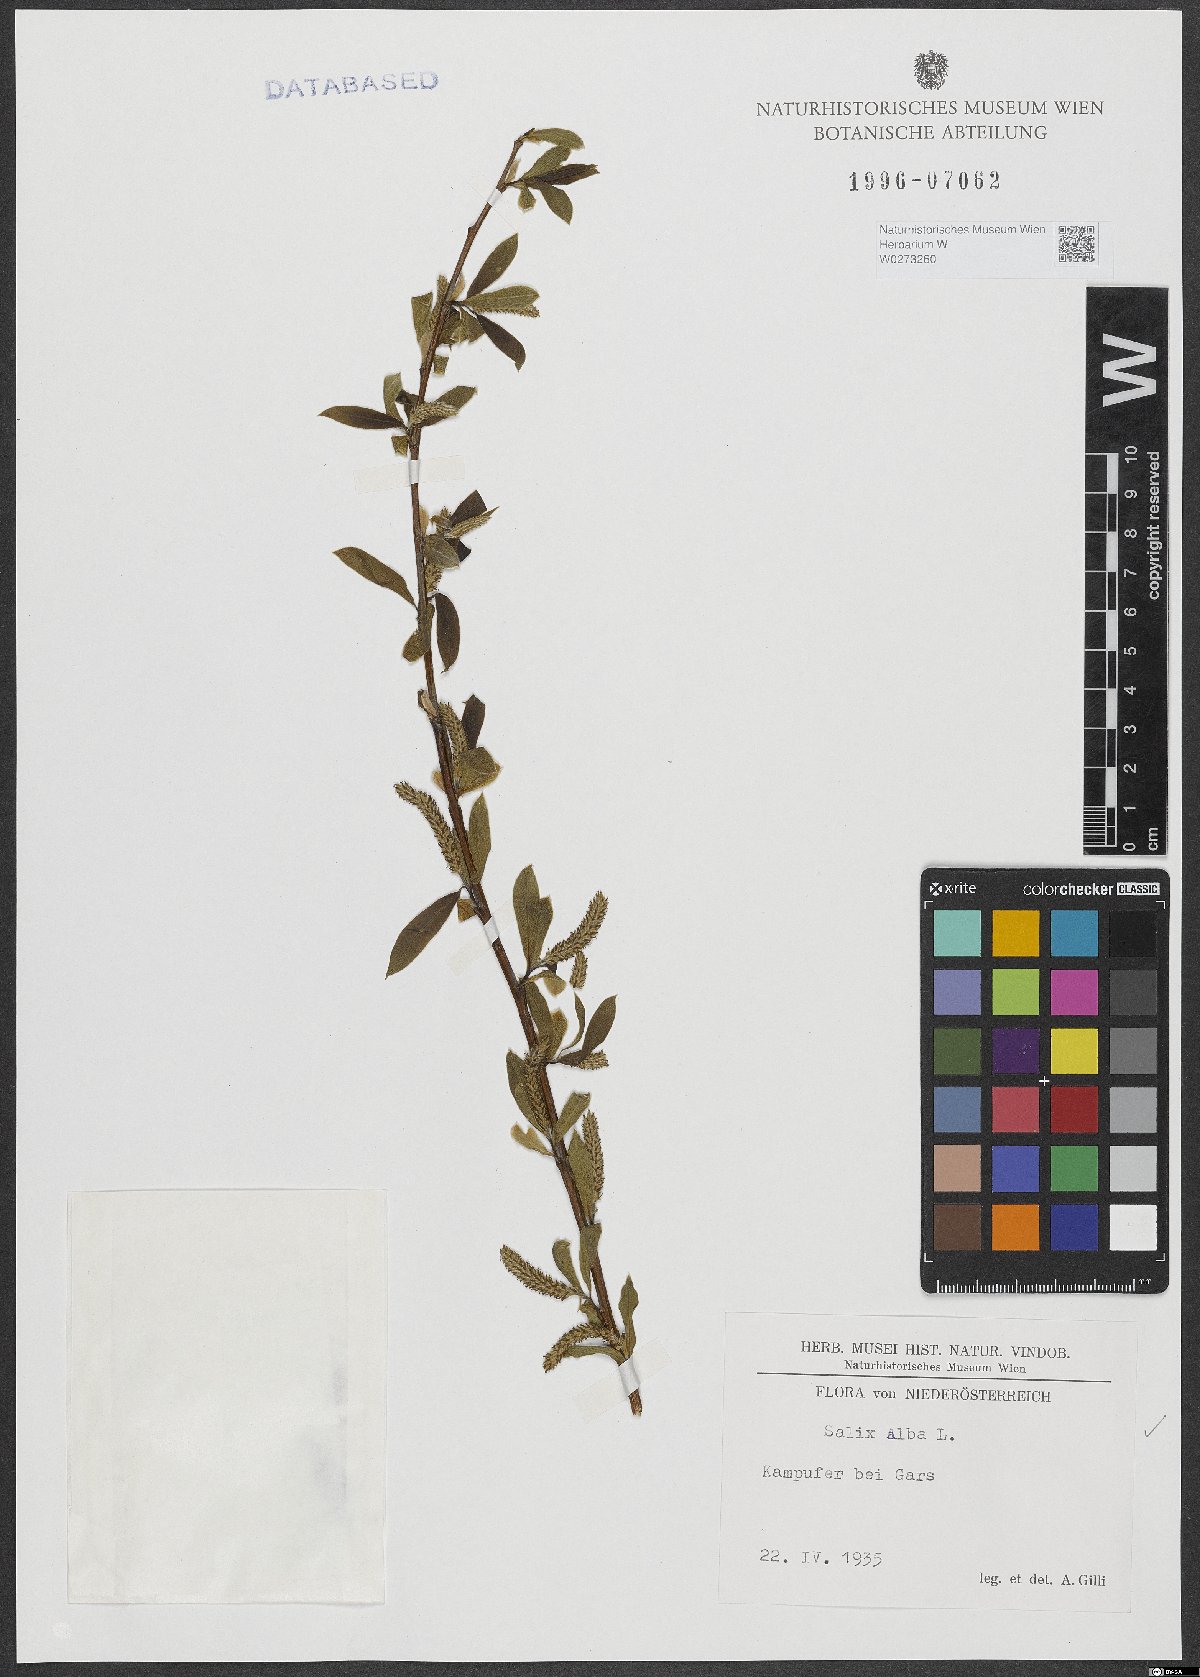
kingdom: Plantae
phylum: Tracheophyta
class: Magnoliopsida
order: Malpighiales
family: Salicaceae
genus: Salix
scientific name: Salix alba
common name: White willow
